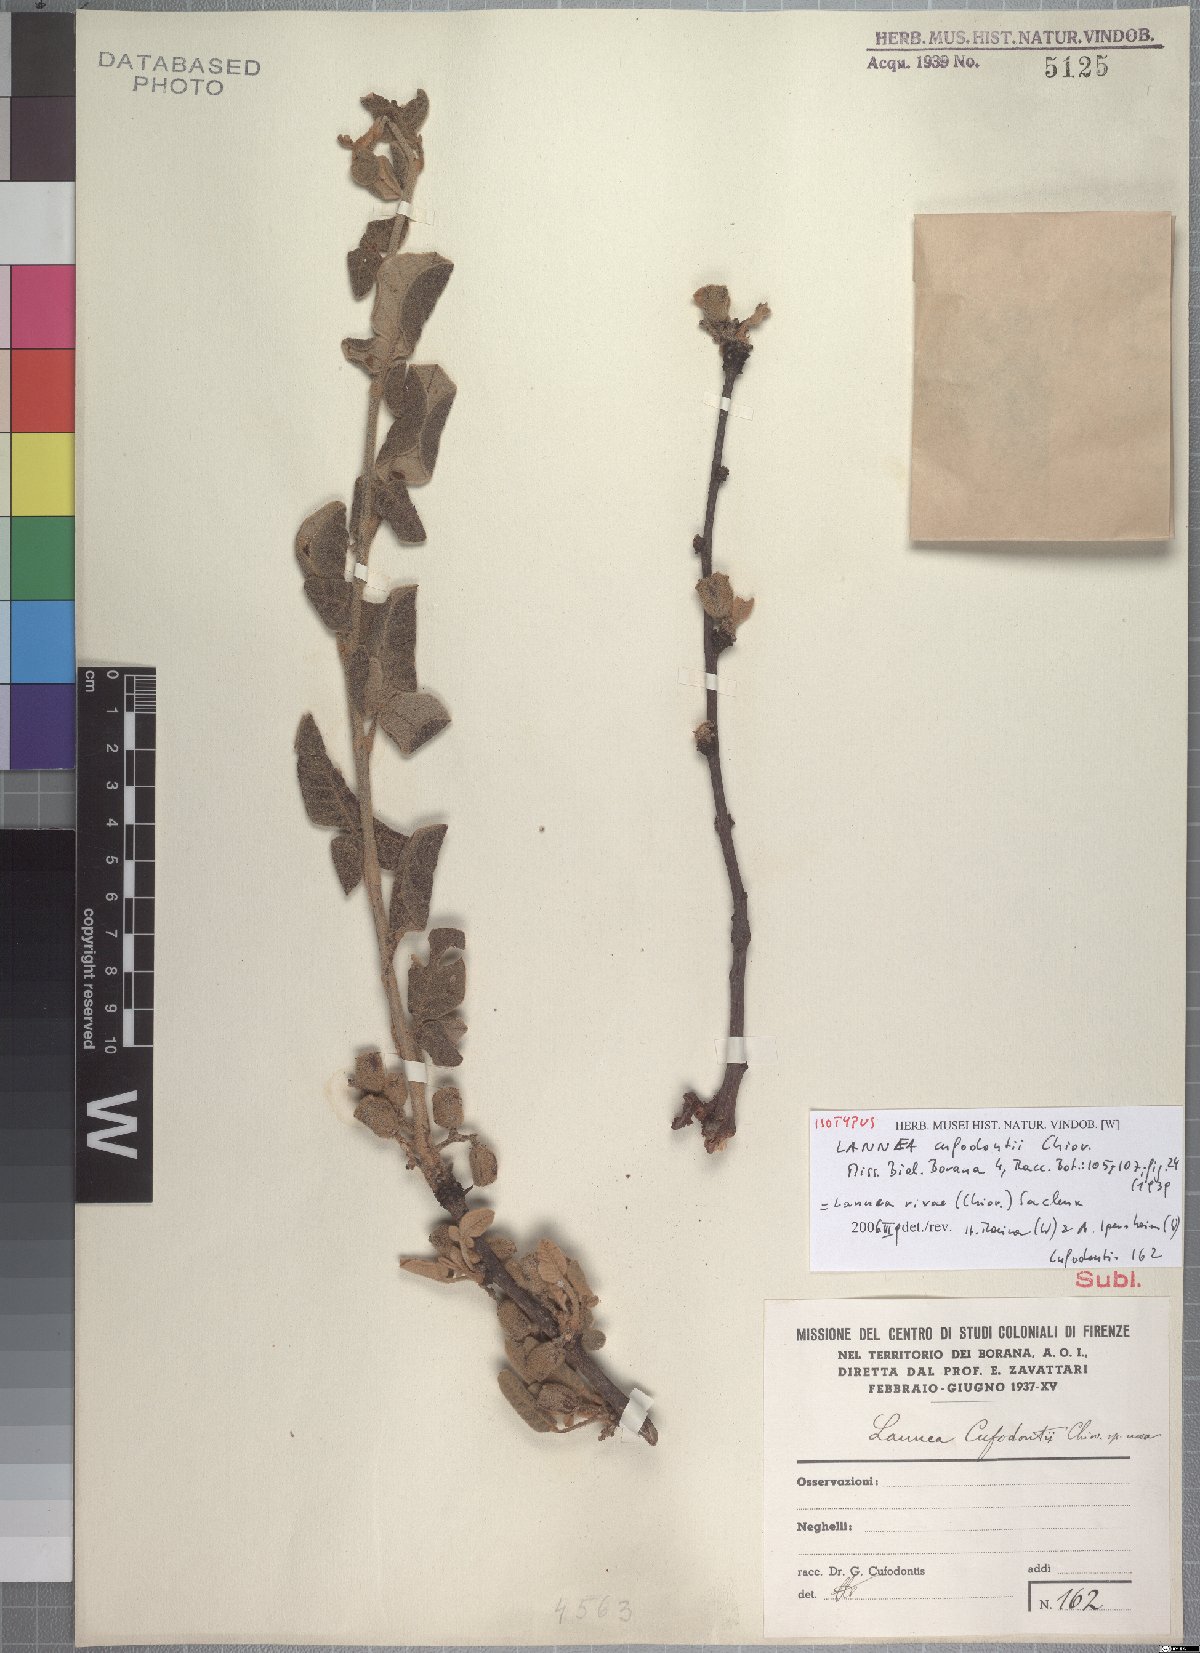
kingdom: Plantae
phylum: Tracheophyta
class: Magnoliopsida
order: Sapindales
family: Anacardiaceae
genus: Lannea
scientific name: Lannea rivae
